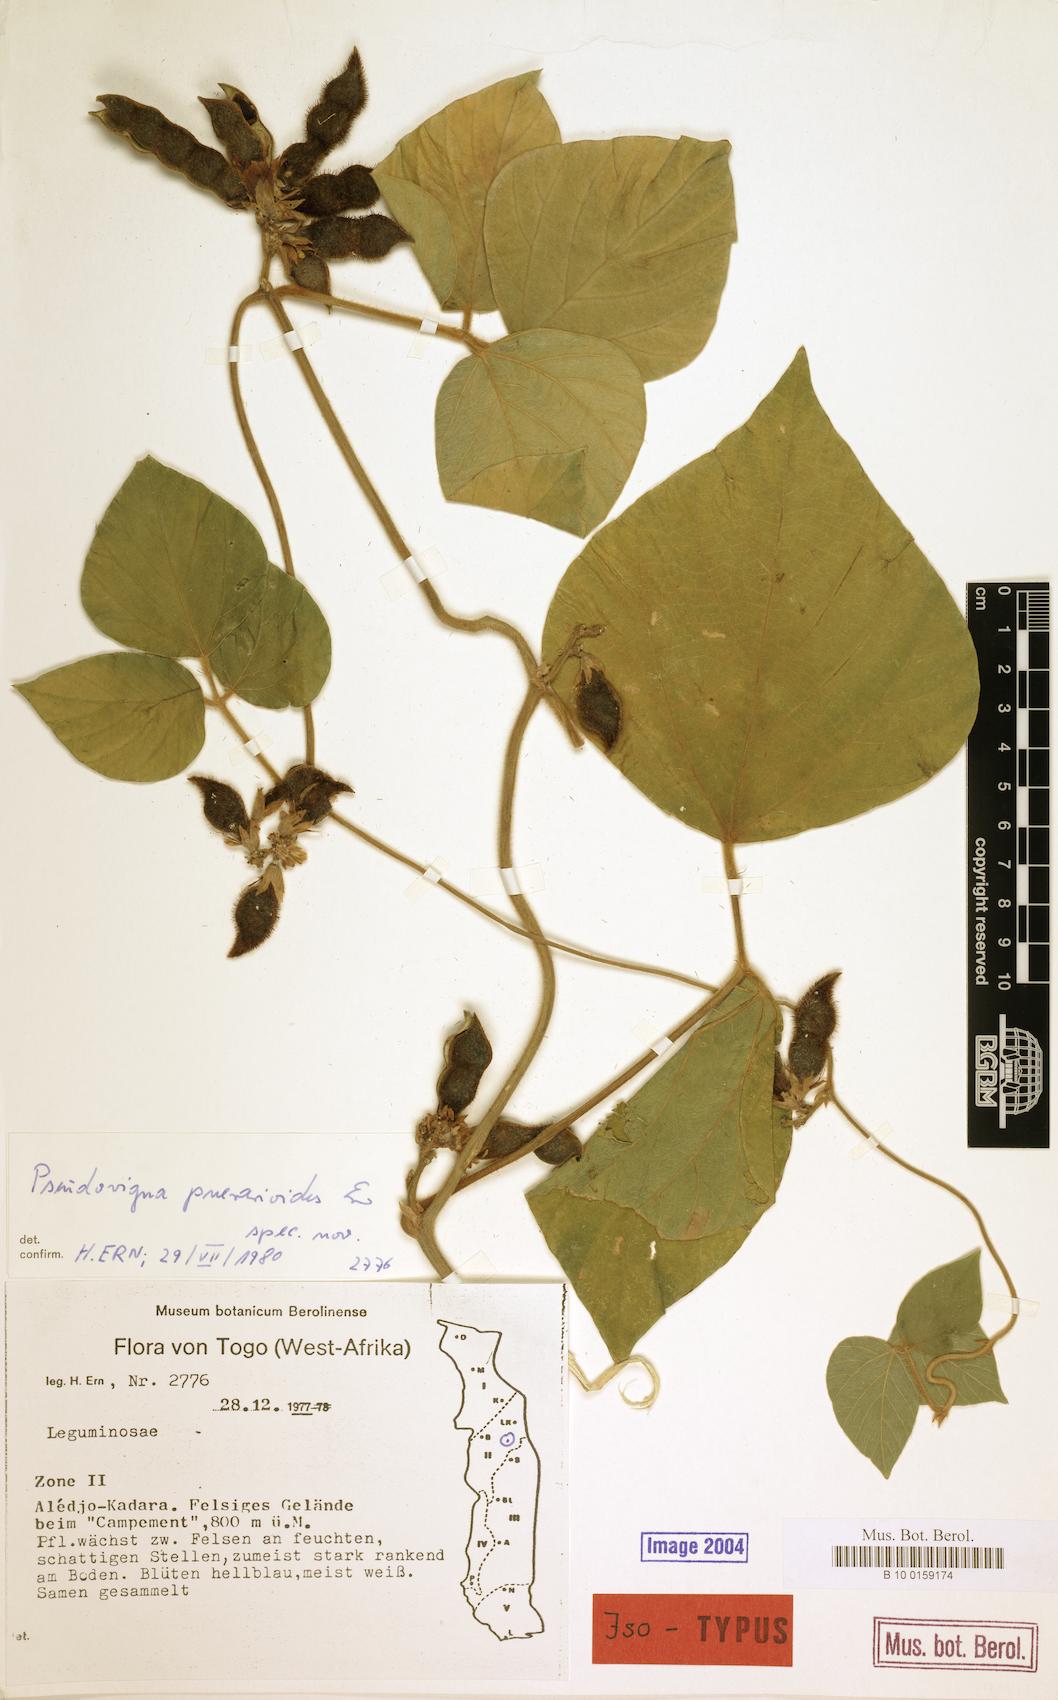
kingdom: Plantae
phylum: Tracheophyta
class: Magnoliopsida
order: Fabales
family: Fabaceae
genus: Pseudovigna
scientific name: Pseudovigna puerarioides
